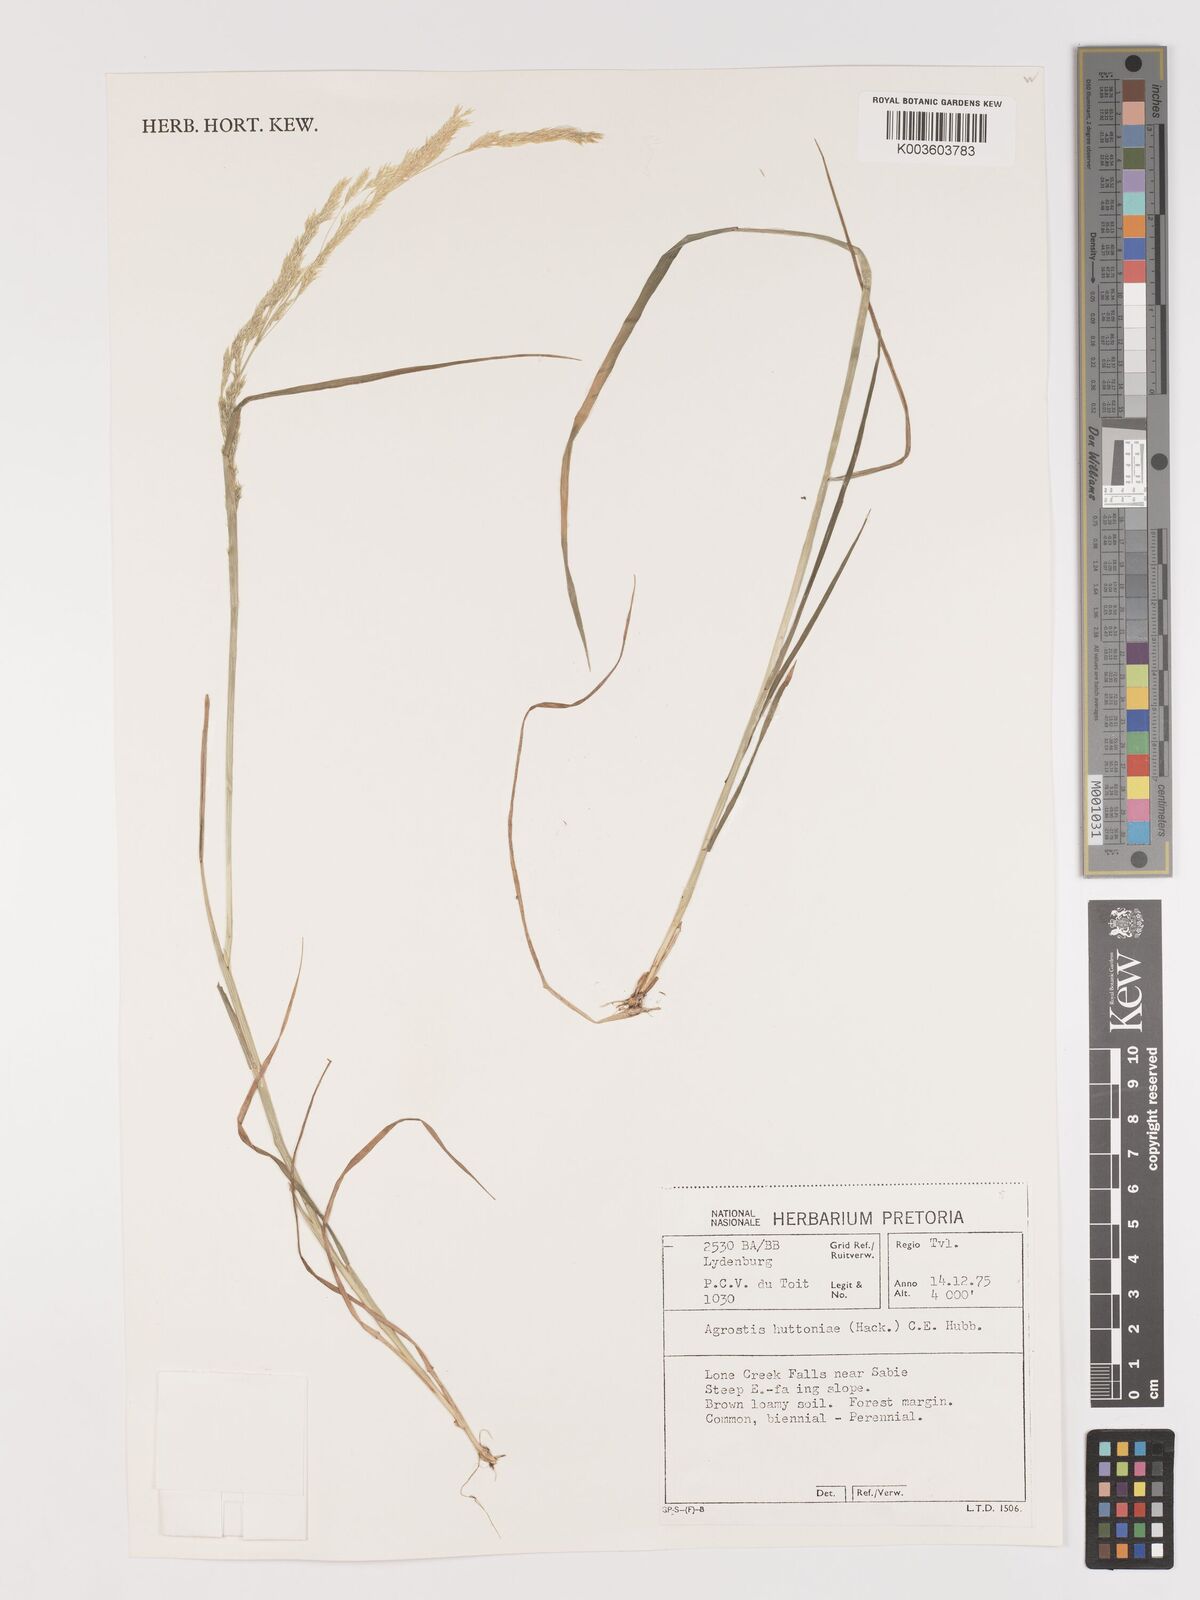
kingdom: Plantae
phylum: Tracheophyta
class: Liliopsida
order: Poales
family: Poaceae
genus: Lachnagrostis
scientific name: Lachnagrostis lachnantha
